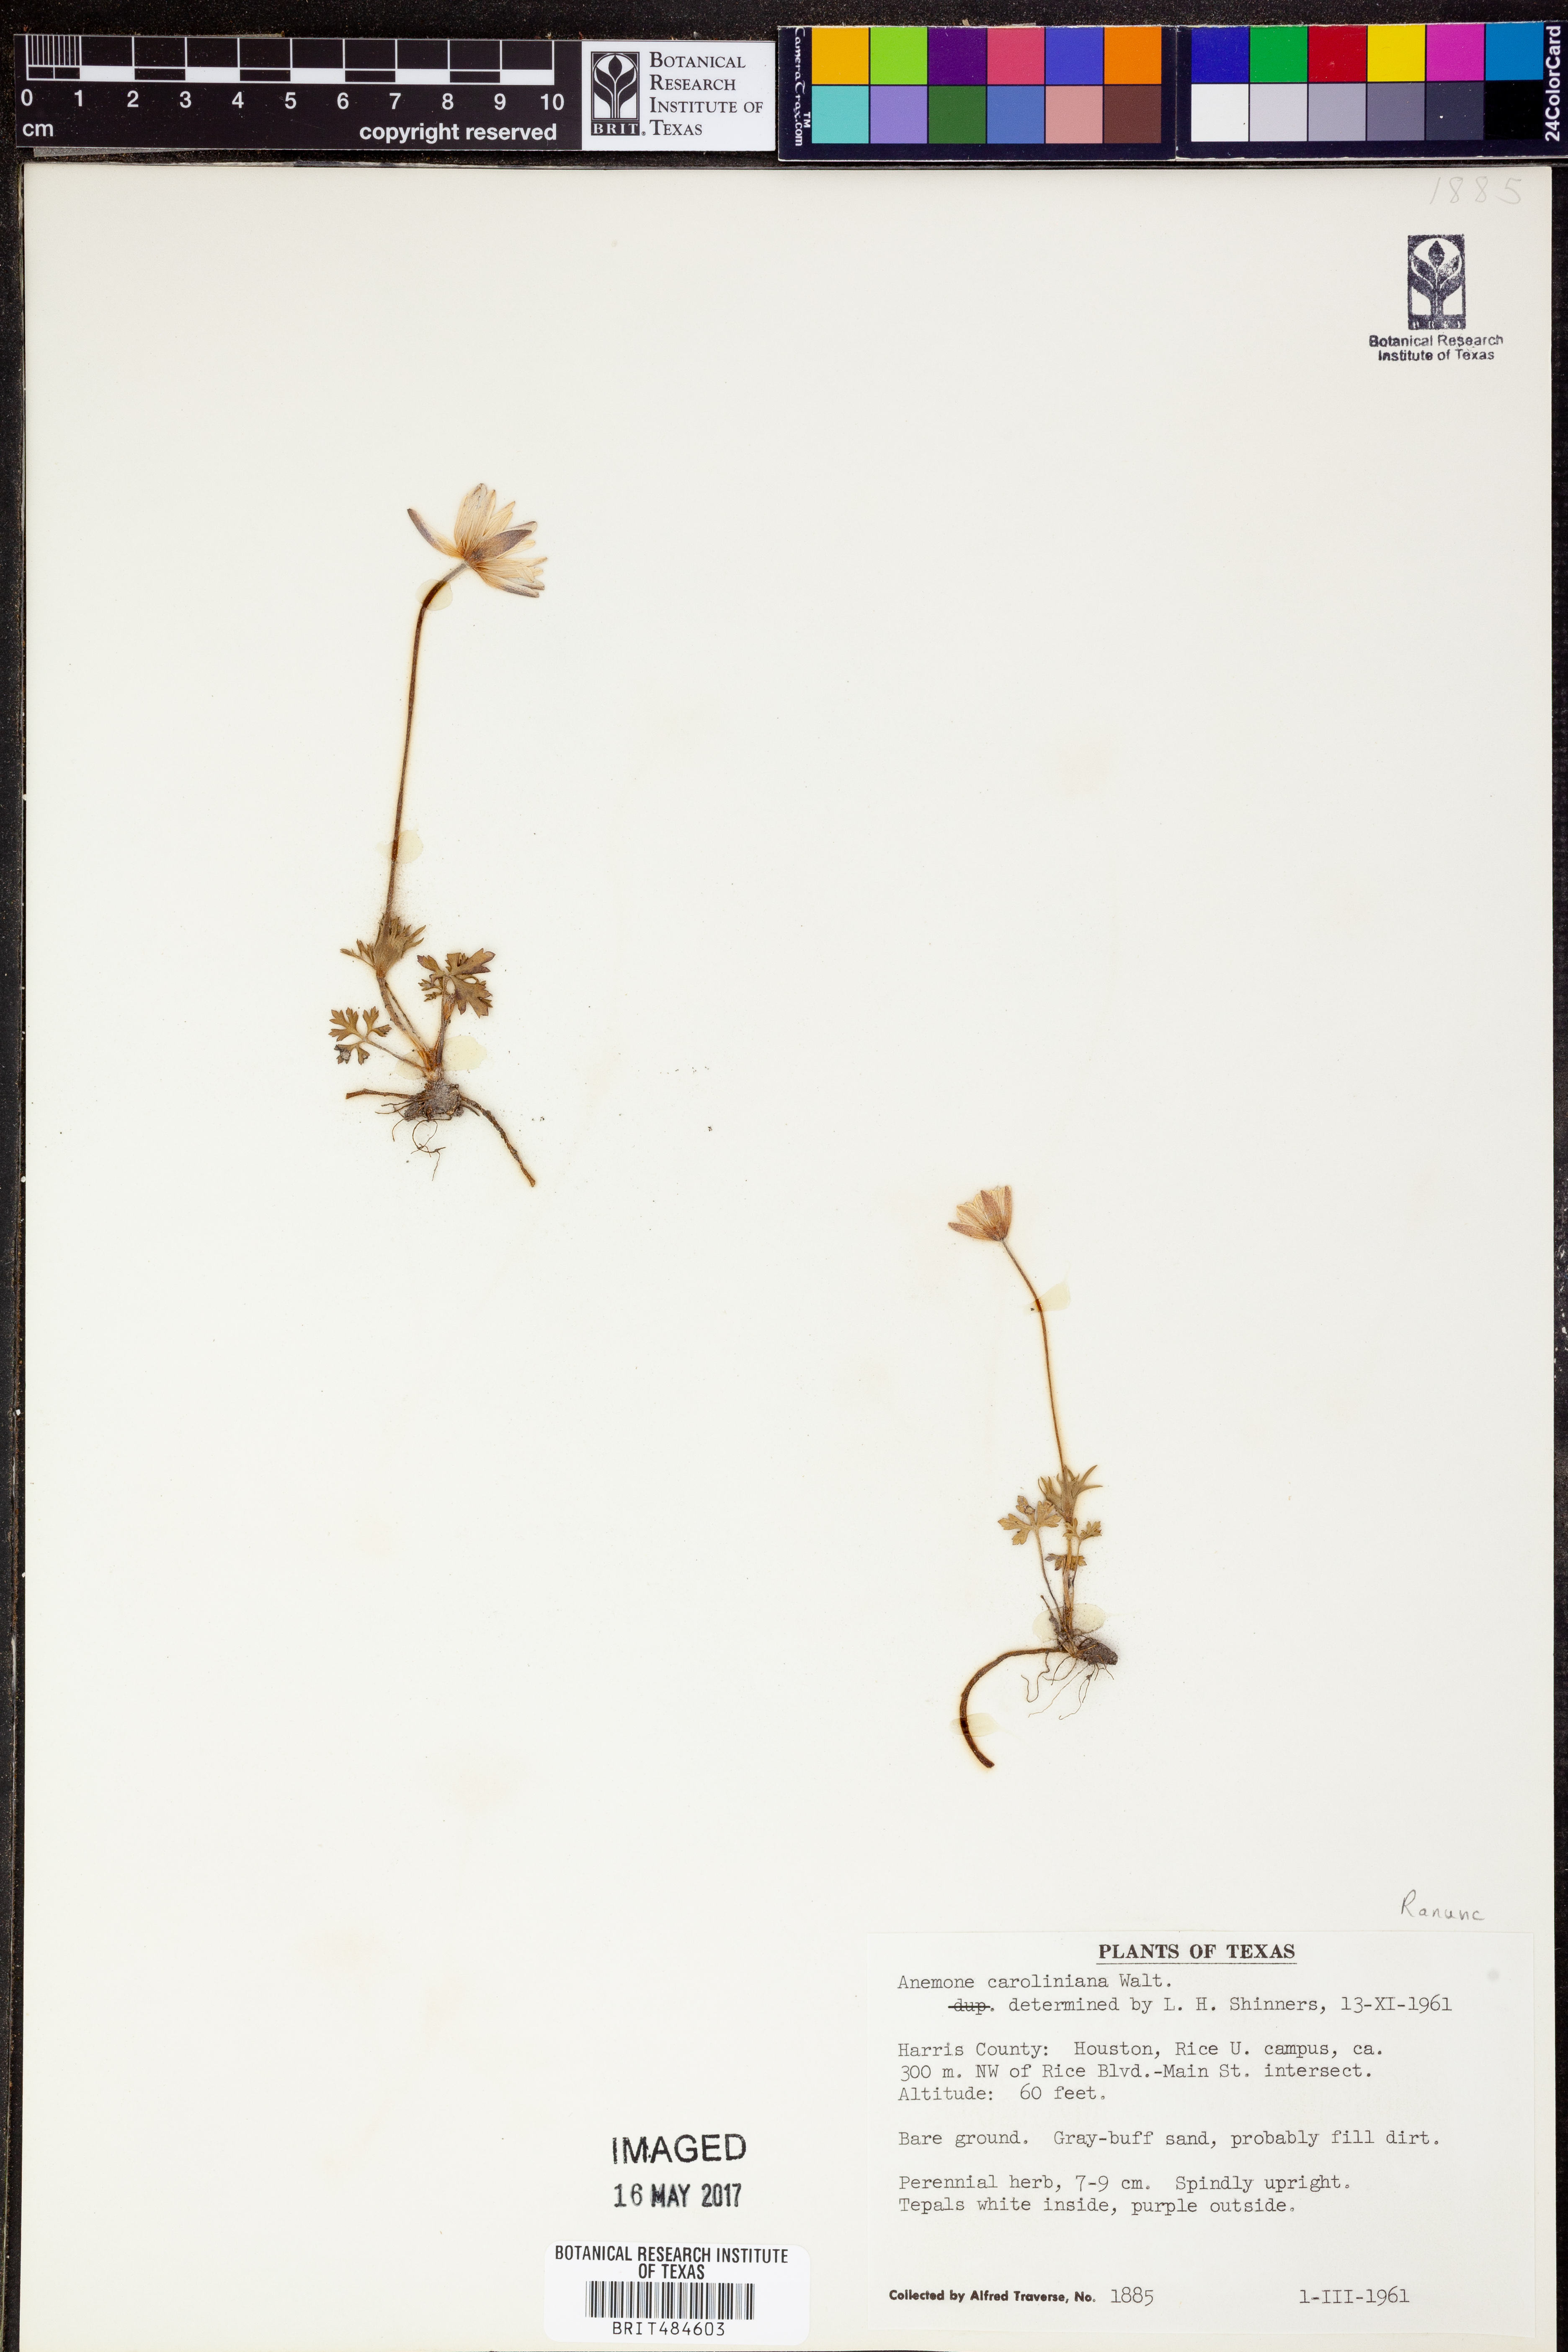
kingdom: Plantae
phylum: Tracheophyta
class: Magnoliopsida
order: Ranunculales
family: Ranunculaceae
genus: Anemone
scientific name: Anemone caroliniana
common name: Carolina anemone
